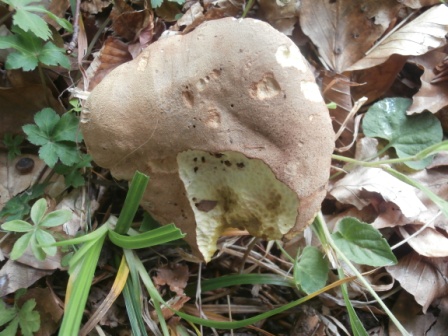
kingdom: Fungi
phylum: Basidiomycota
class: Agaricomycetes
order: Boletales
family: Boletaceae
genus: Butyriboletus
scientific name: Butyriboletus appendiculatus
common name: tenstokket rørhat
